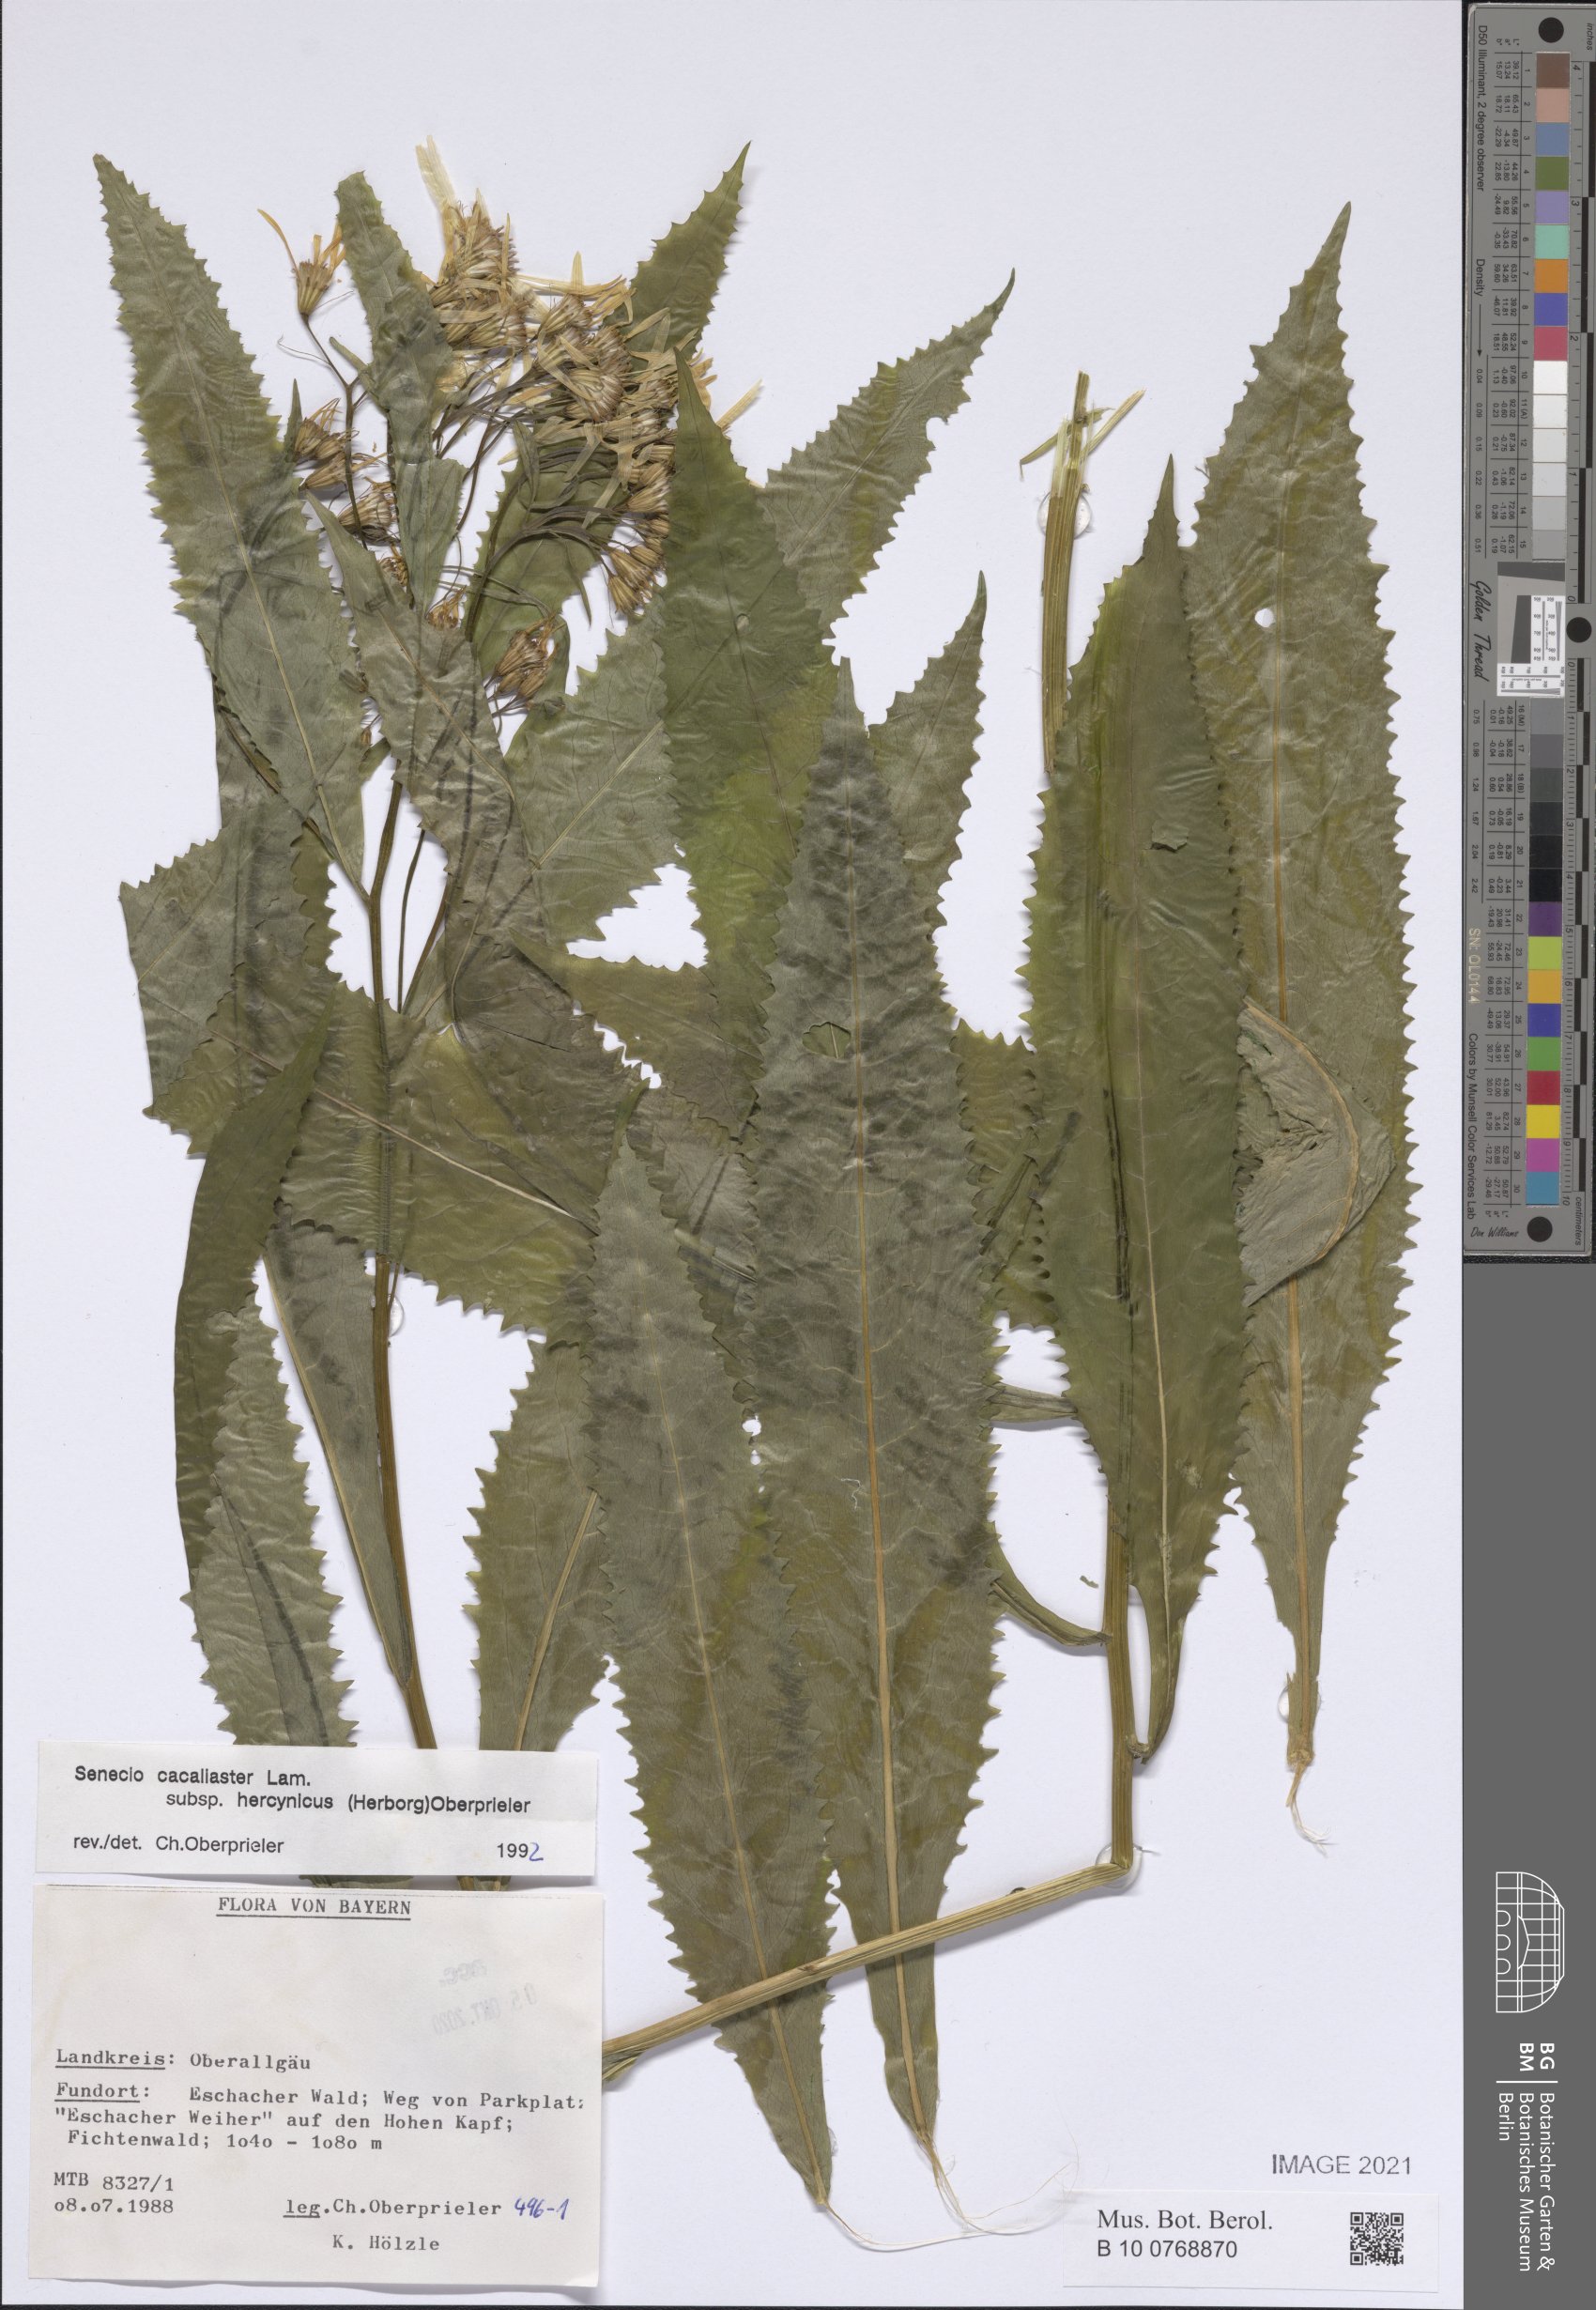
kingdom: Plantae
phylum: Tracheophyta
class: Magnoliopsida
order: Asterales
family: Asteraceae
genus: Senecio
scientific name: Senecio hercynicus
